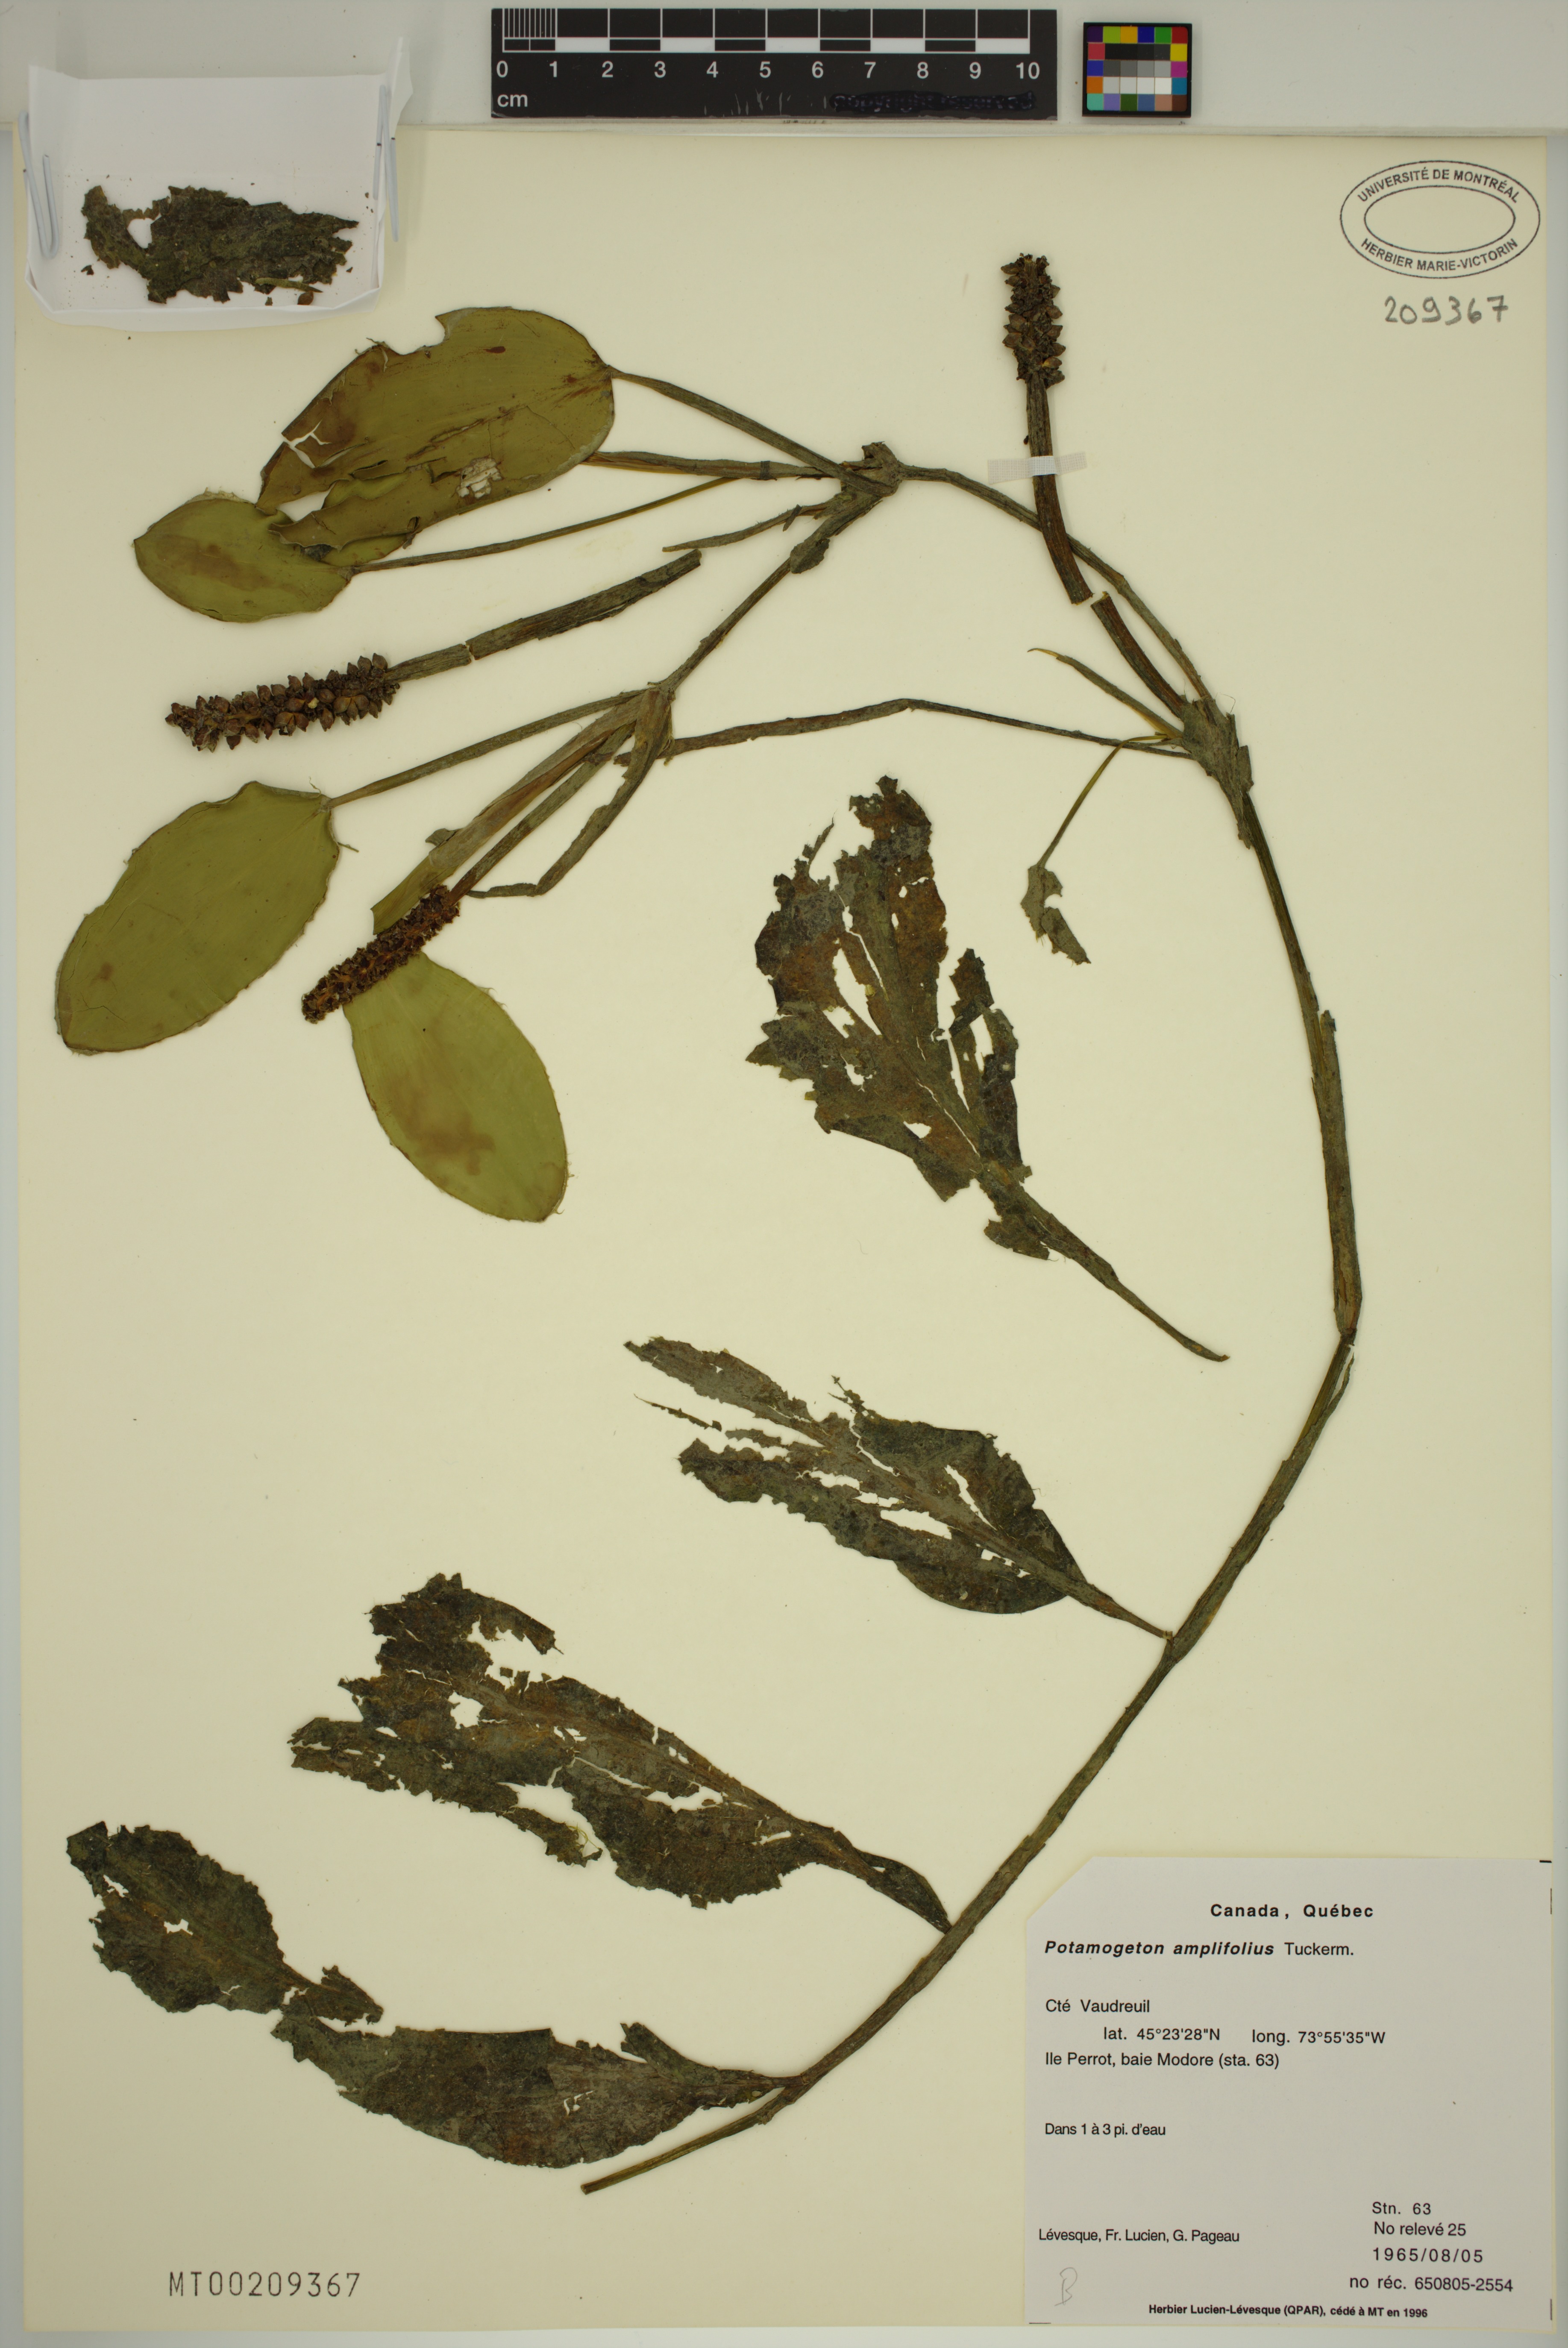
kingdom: Plantae
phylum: Tracheophyta
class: Liliopsida
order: Alismatales
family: Potamogetonaceae
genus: Potamogeton
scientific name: Potamogeton amplifolius
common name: Broad-leaved pondweed
